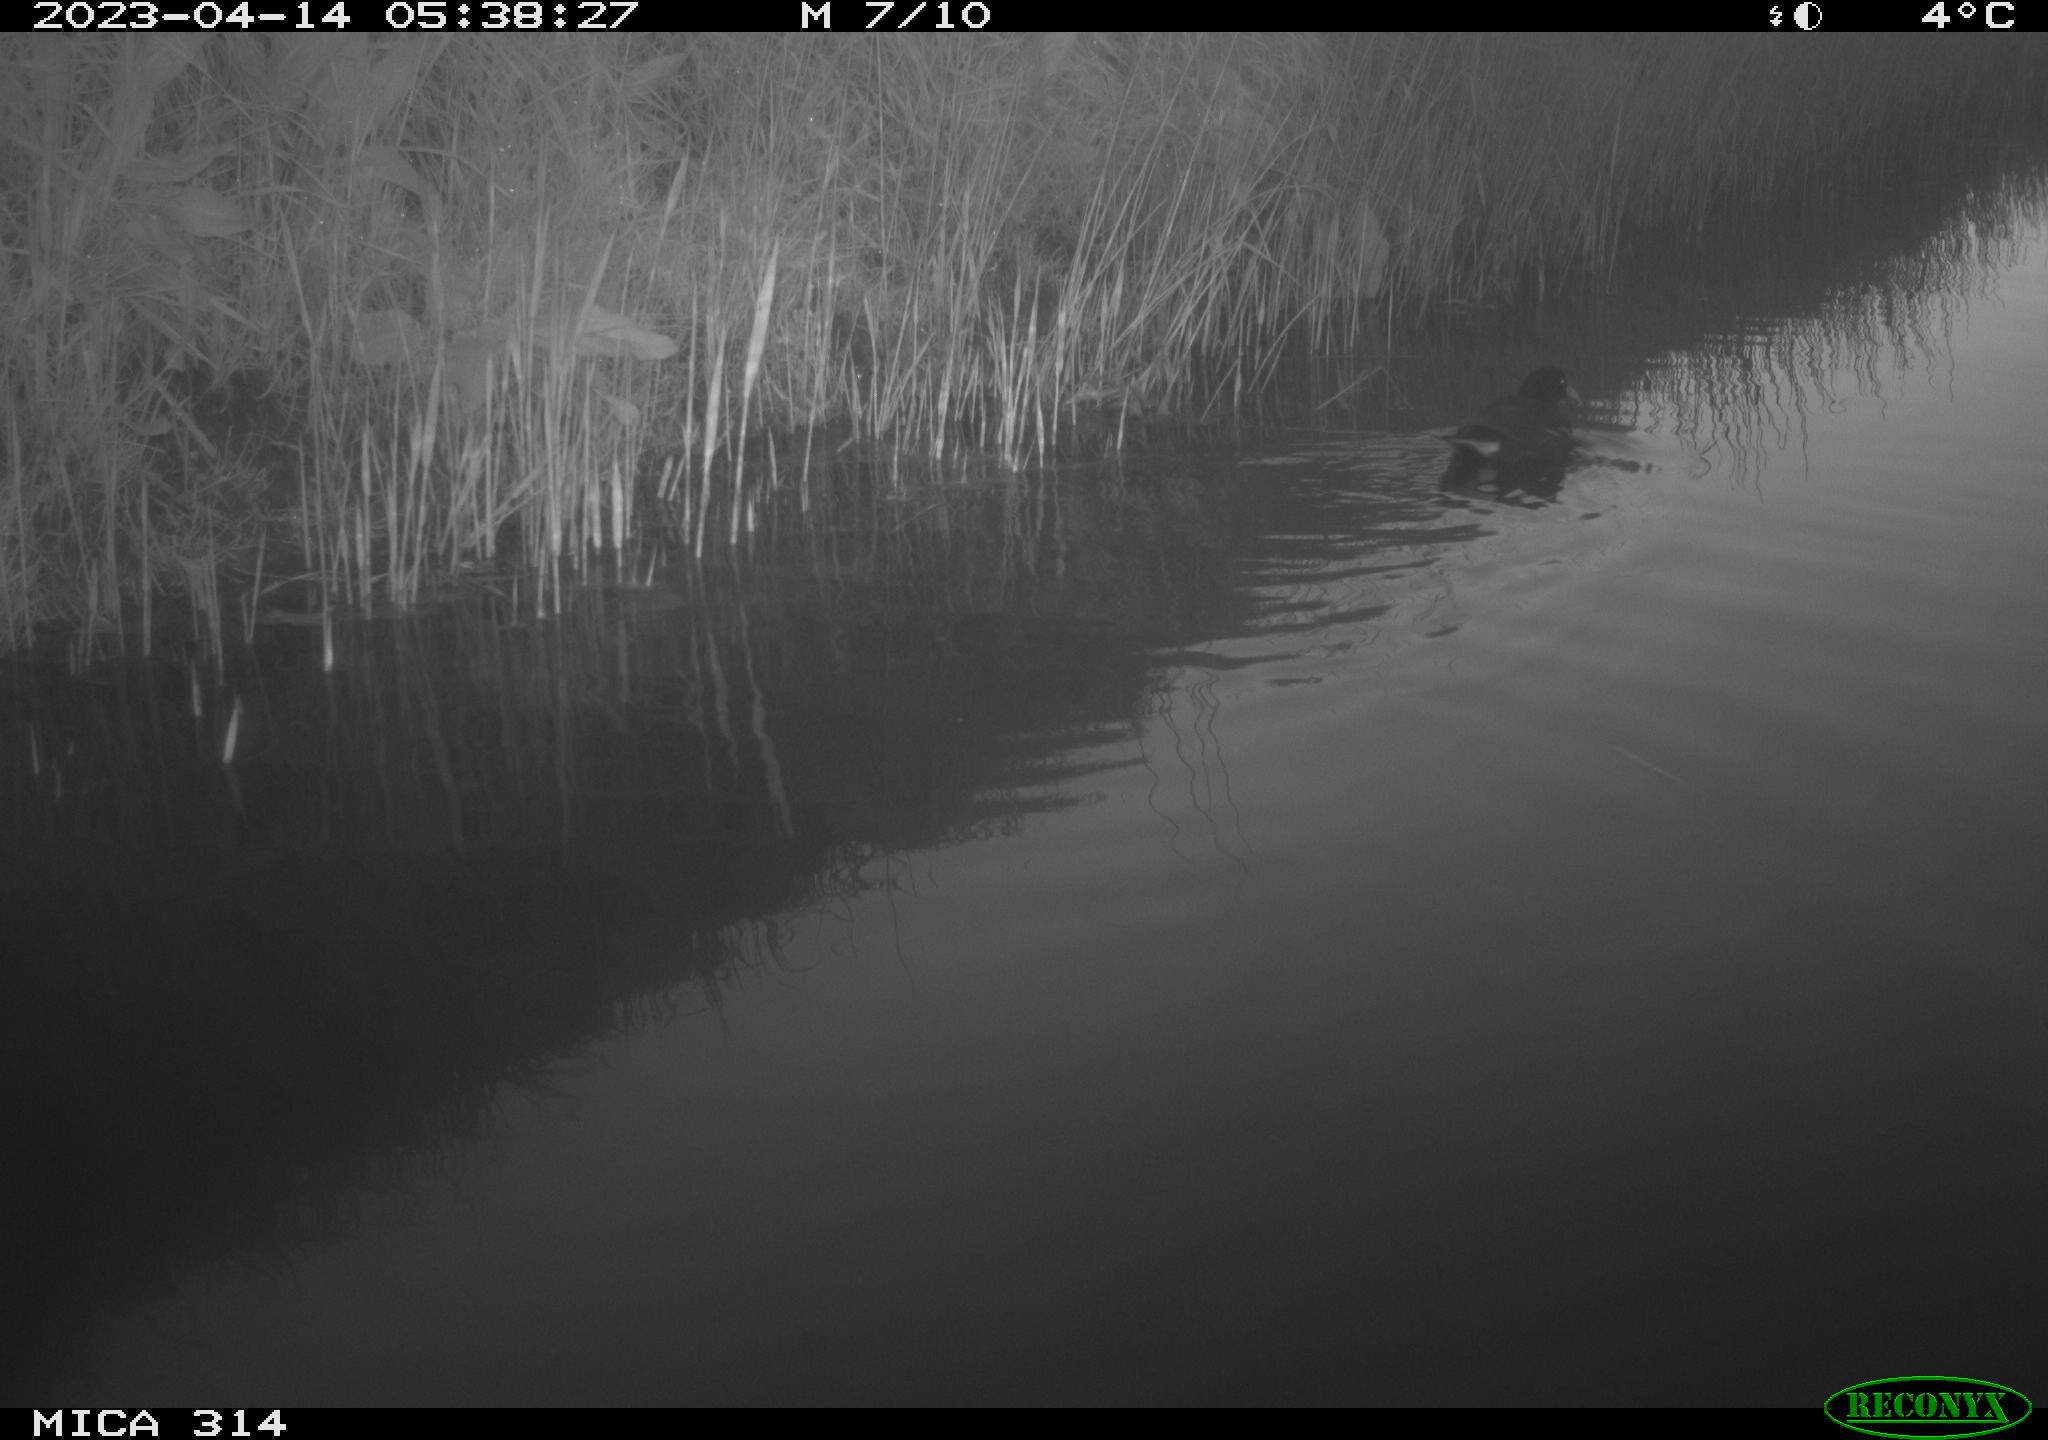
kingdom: Animalia
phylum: Chordata
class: Aves
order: Gruiformes
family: Rallidae
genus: Gallinula
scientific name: Gallinula chloropus
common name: Common moorhen
